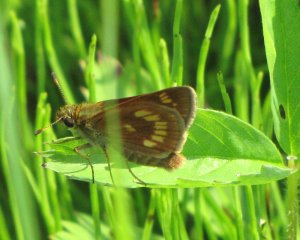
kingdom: Animalia
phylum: Arthropoda
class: Insecta
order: Lepidoptera
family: Hesperiidae
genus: Polites
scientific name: Polites
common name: Long Dash Skipper
